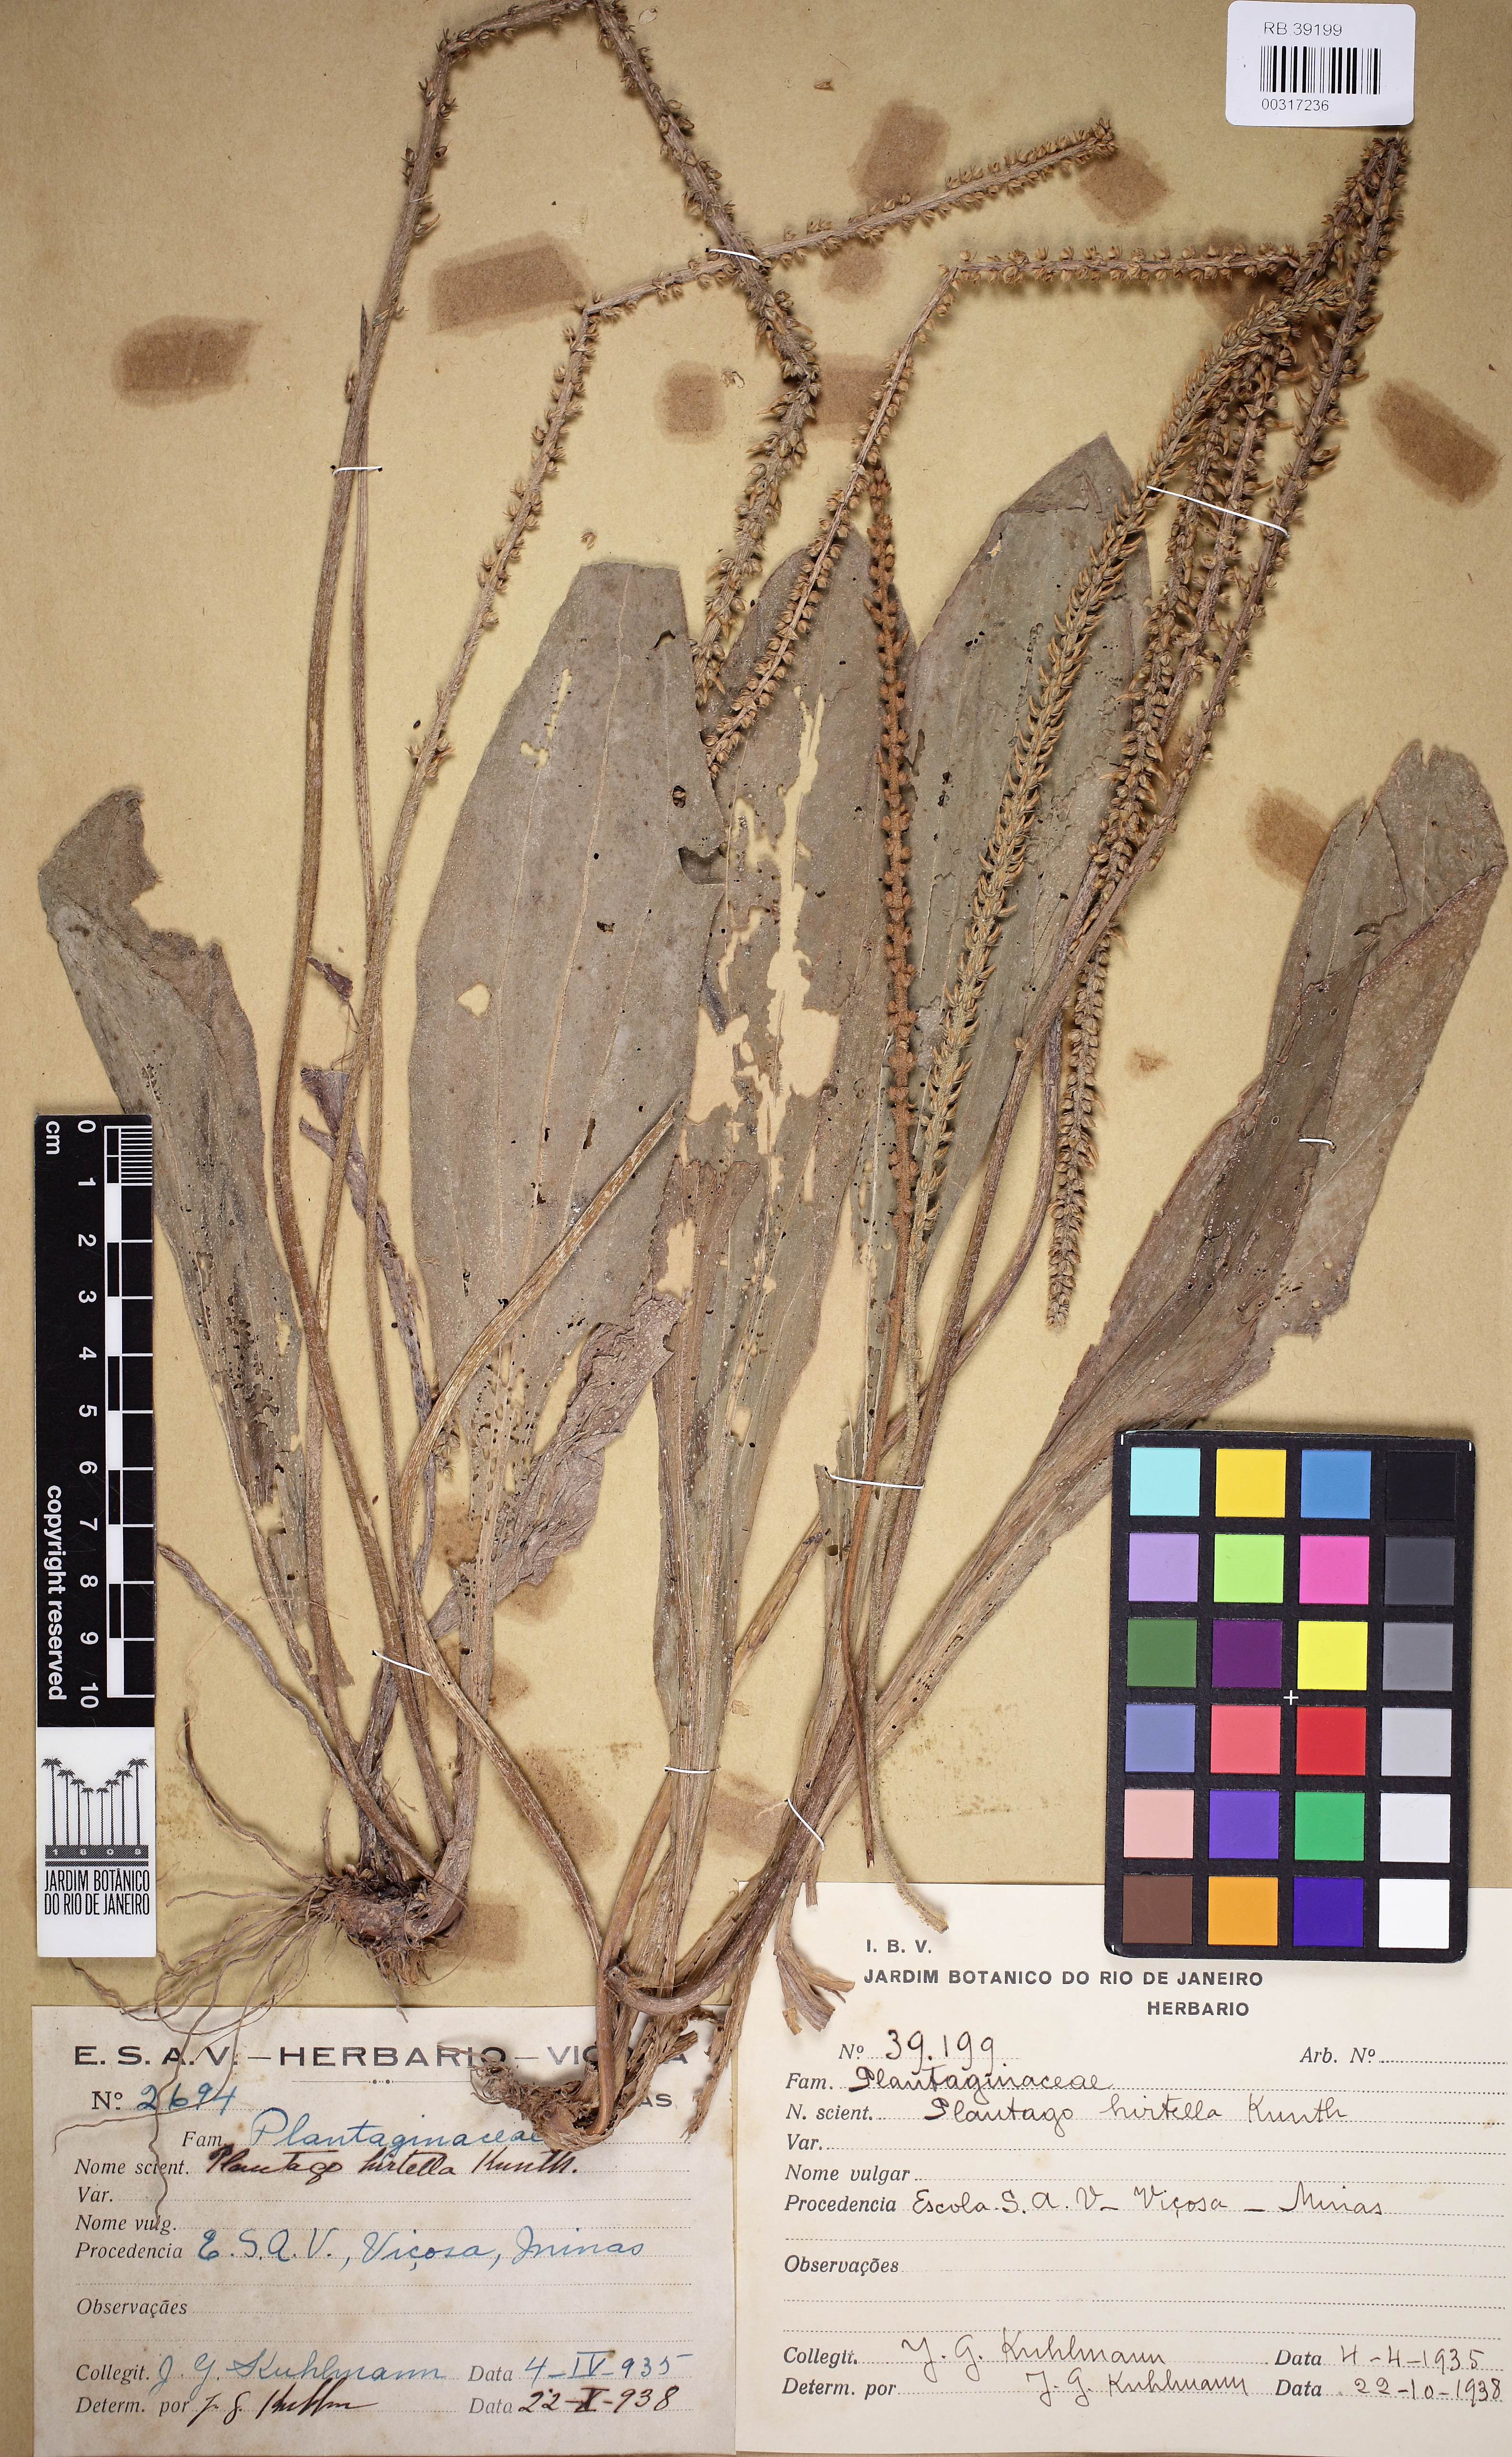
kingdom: Plantae
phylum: Tracheophyta
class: Magnoliopsida
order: Lamiales
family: Plantaginaceae
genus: Plantago
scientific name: Plantago australis
